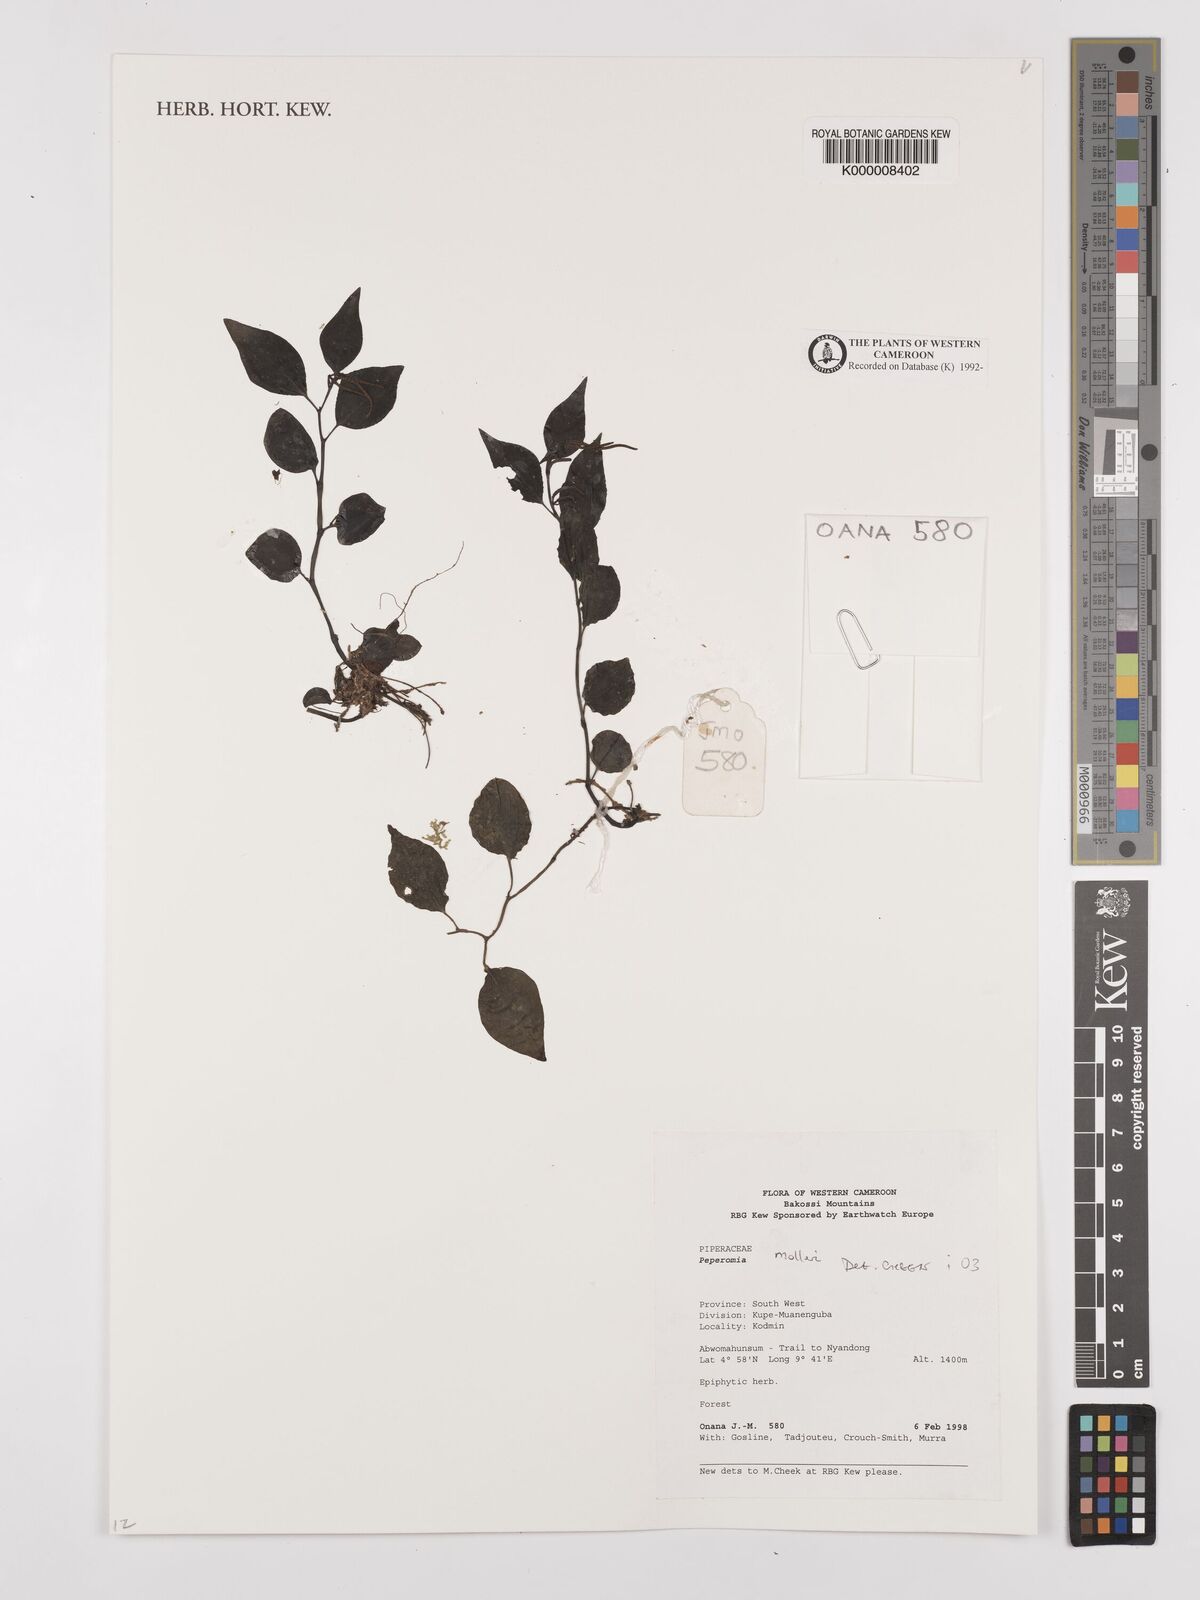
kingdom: Plantae
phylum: Tracheophyta
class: Magnoliopsida
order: Piperales
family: Piperaceae
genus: Peperomia
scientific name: Peperomia molleri
